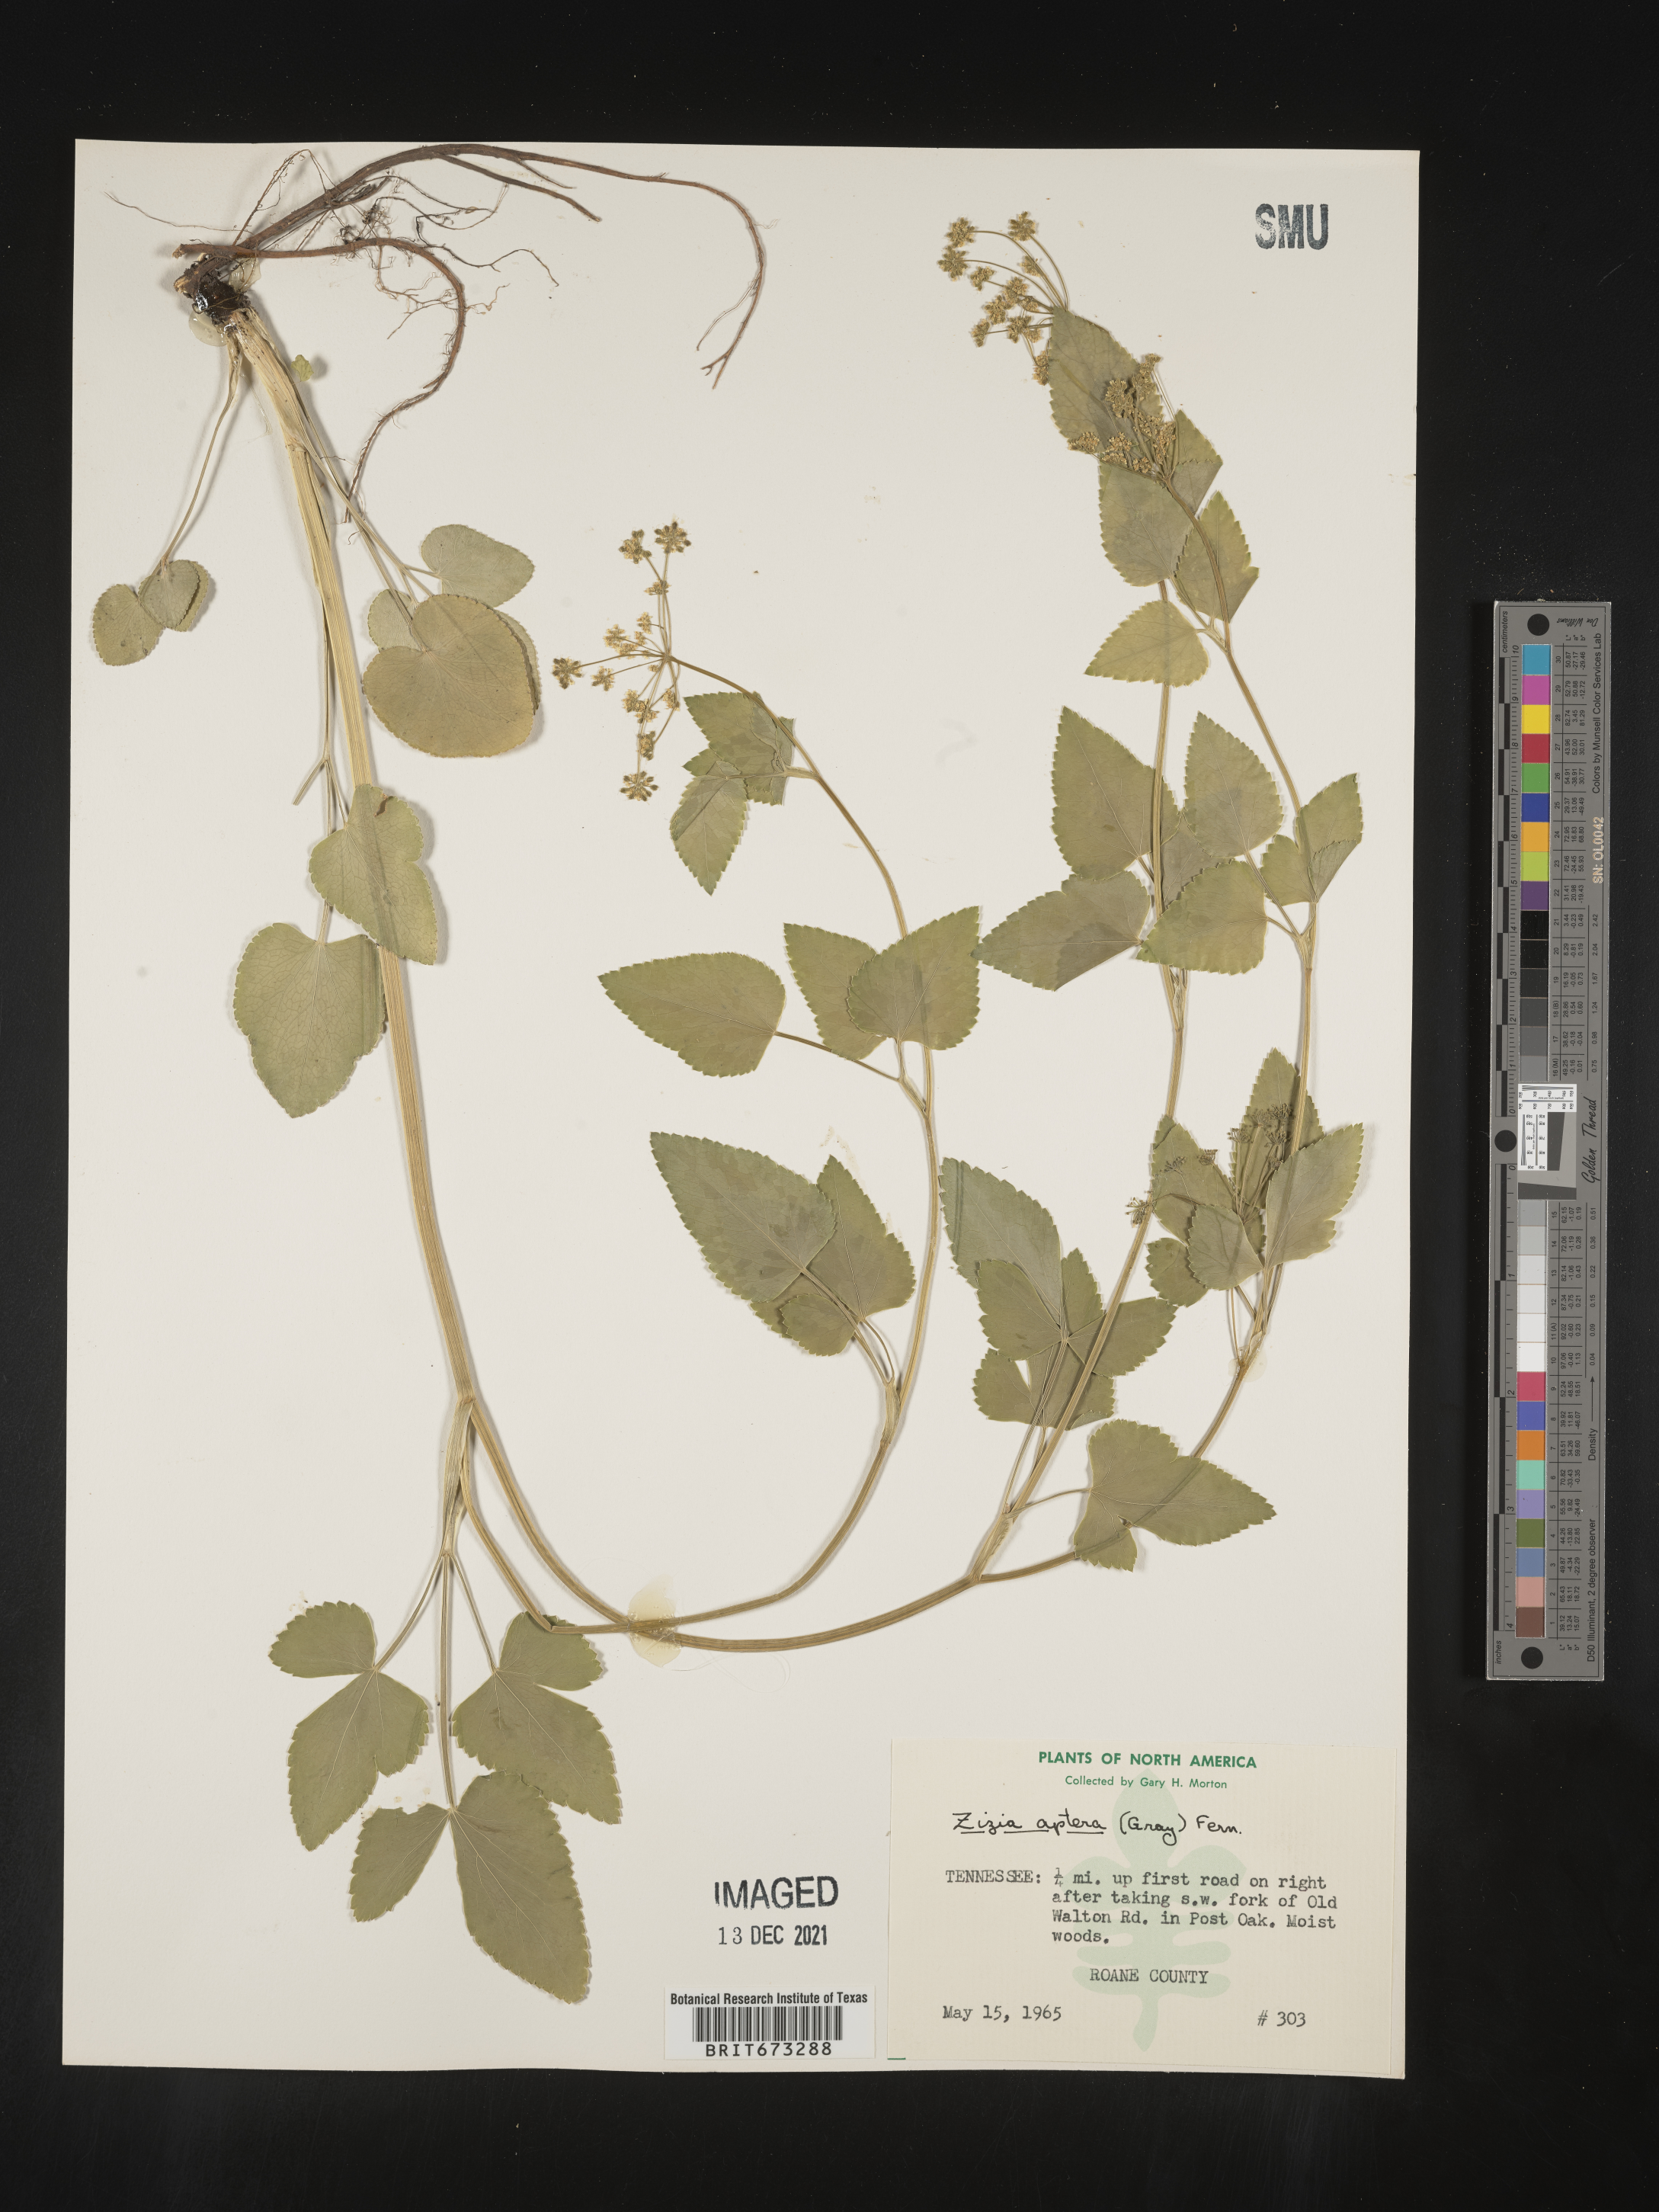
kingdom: Plantae
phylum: Tracheophyta
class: Magnoliopsida
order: Apiales
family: Apiaceae
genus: Zizia
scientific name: Zizia aptera
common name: Heart-leaved alexanders
